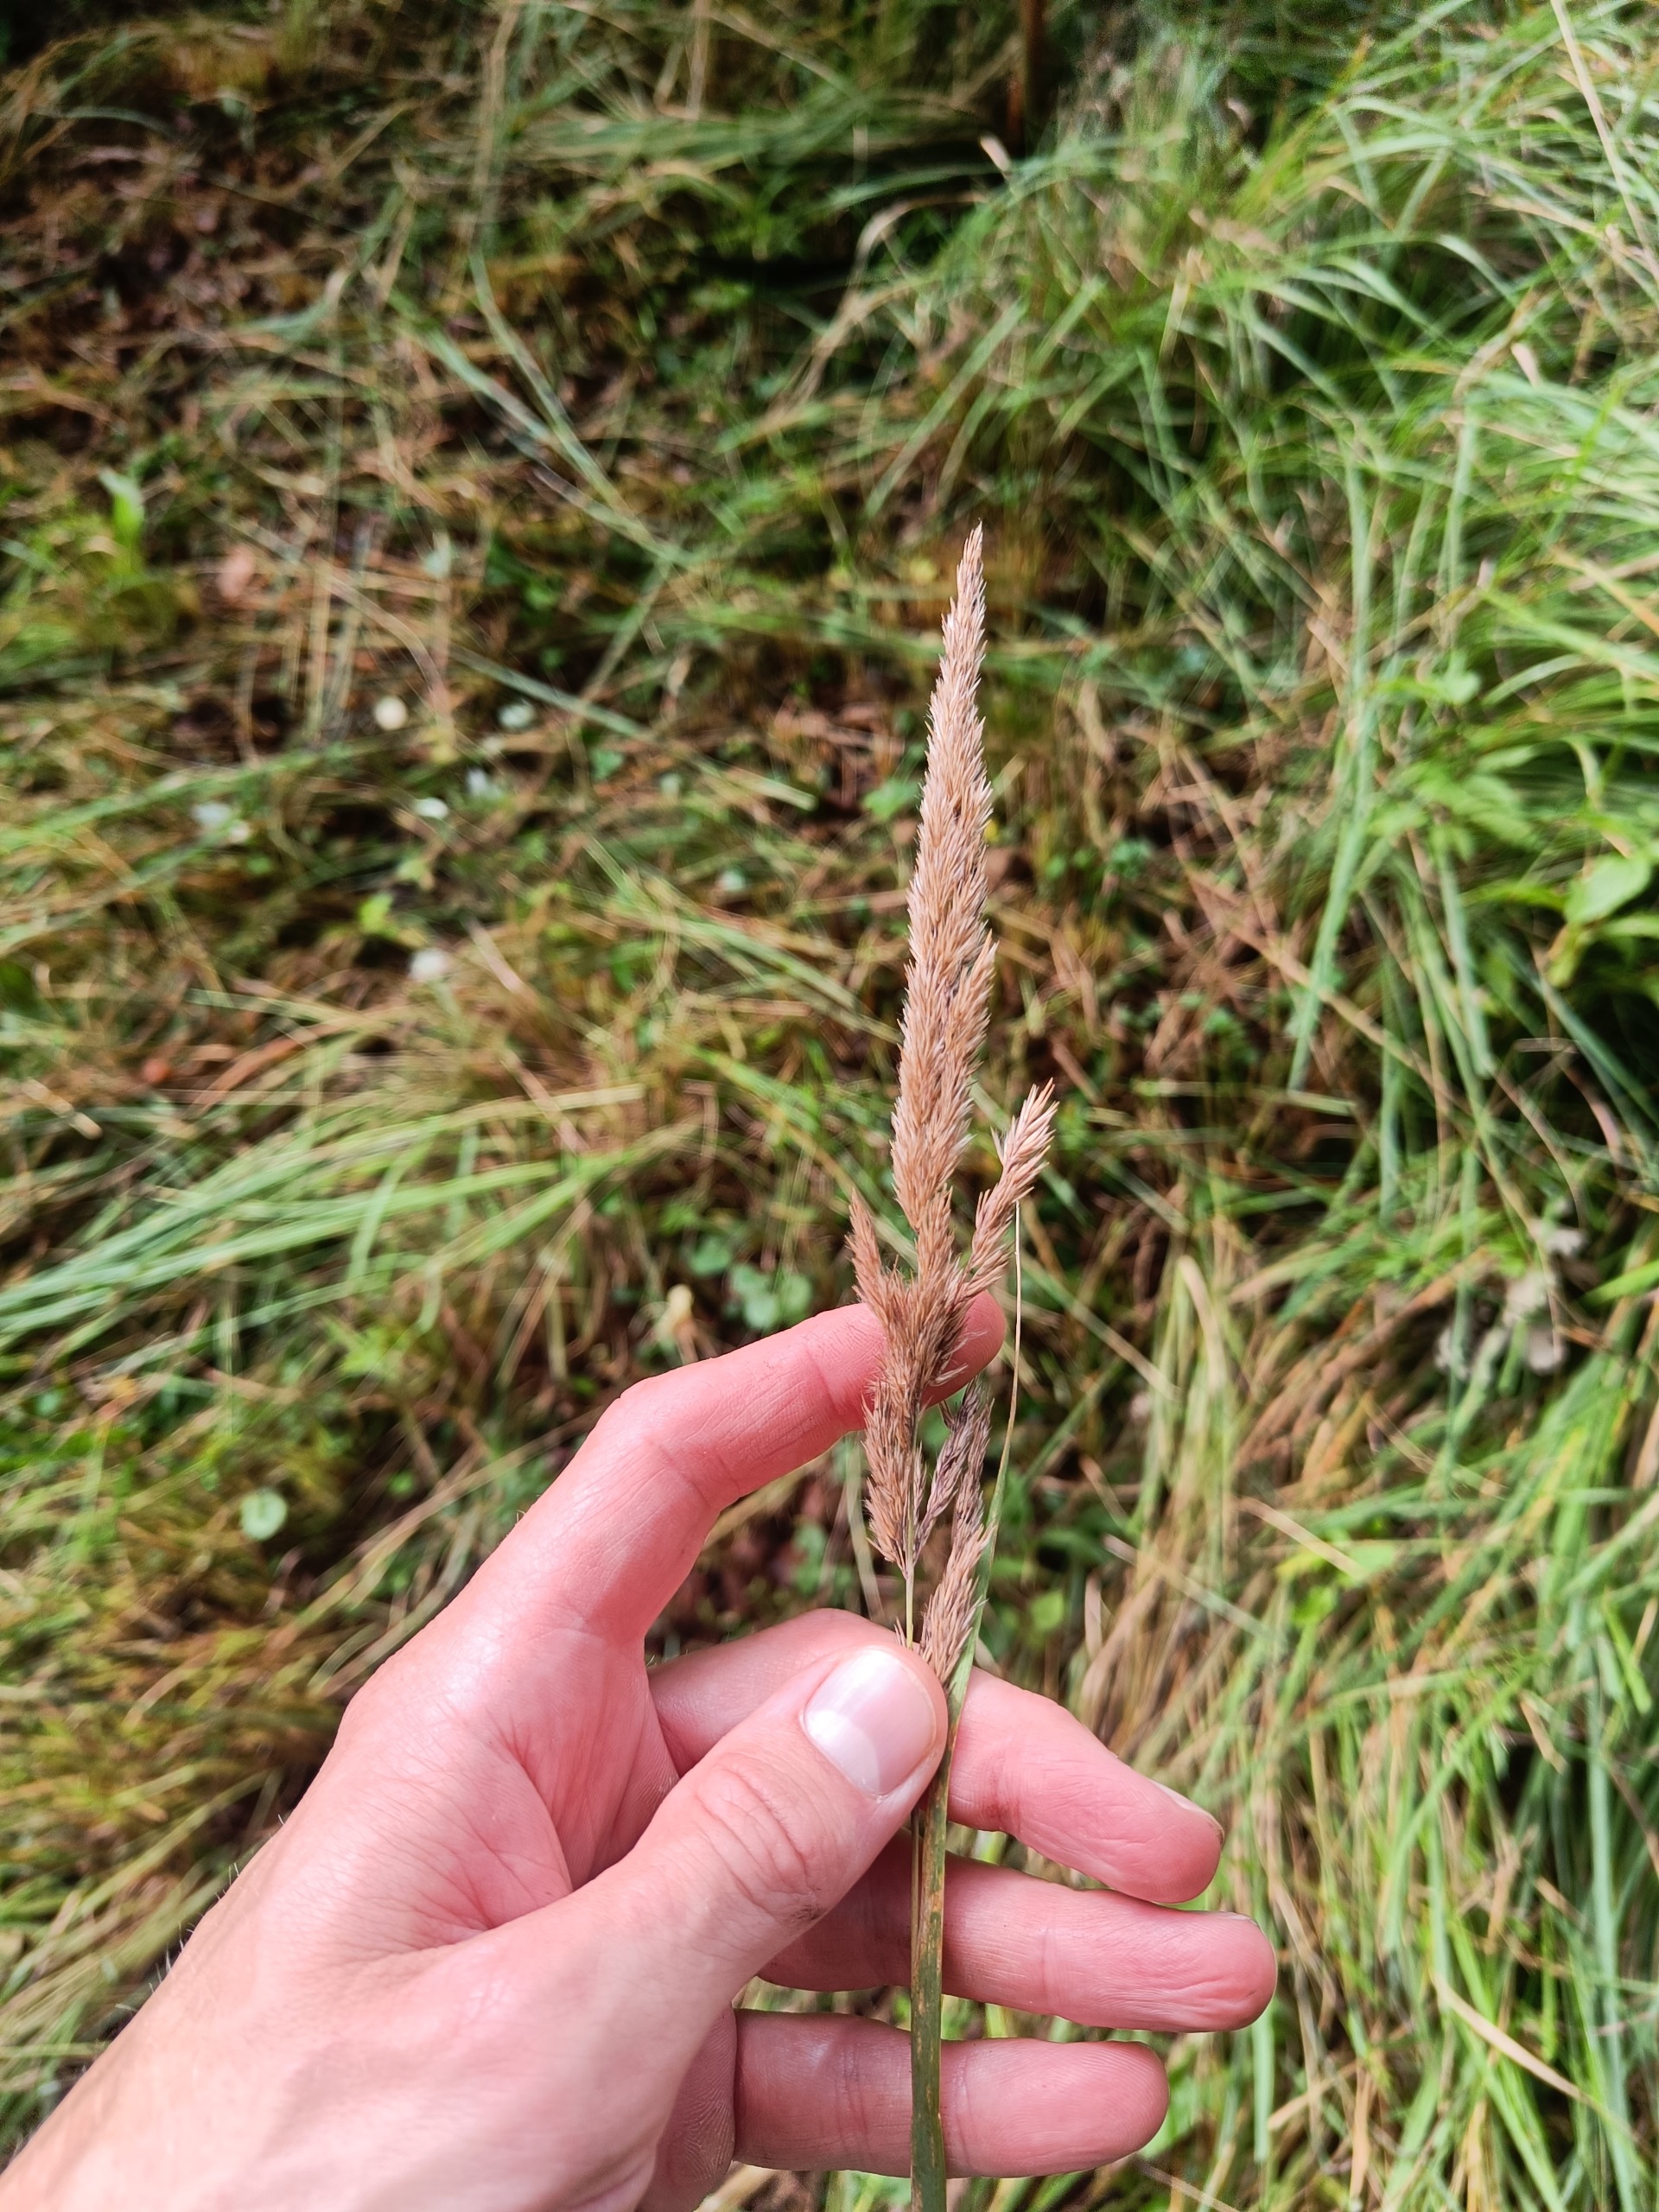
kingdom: Plantae
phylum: Tracheophyta
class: Liliopsida
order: Poales
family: Poaceae
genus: Calamagrostis
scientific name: Calamagrostis epigejos
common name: Bjerg-rørhvene
